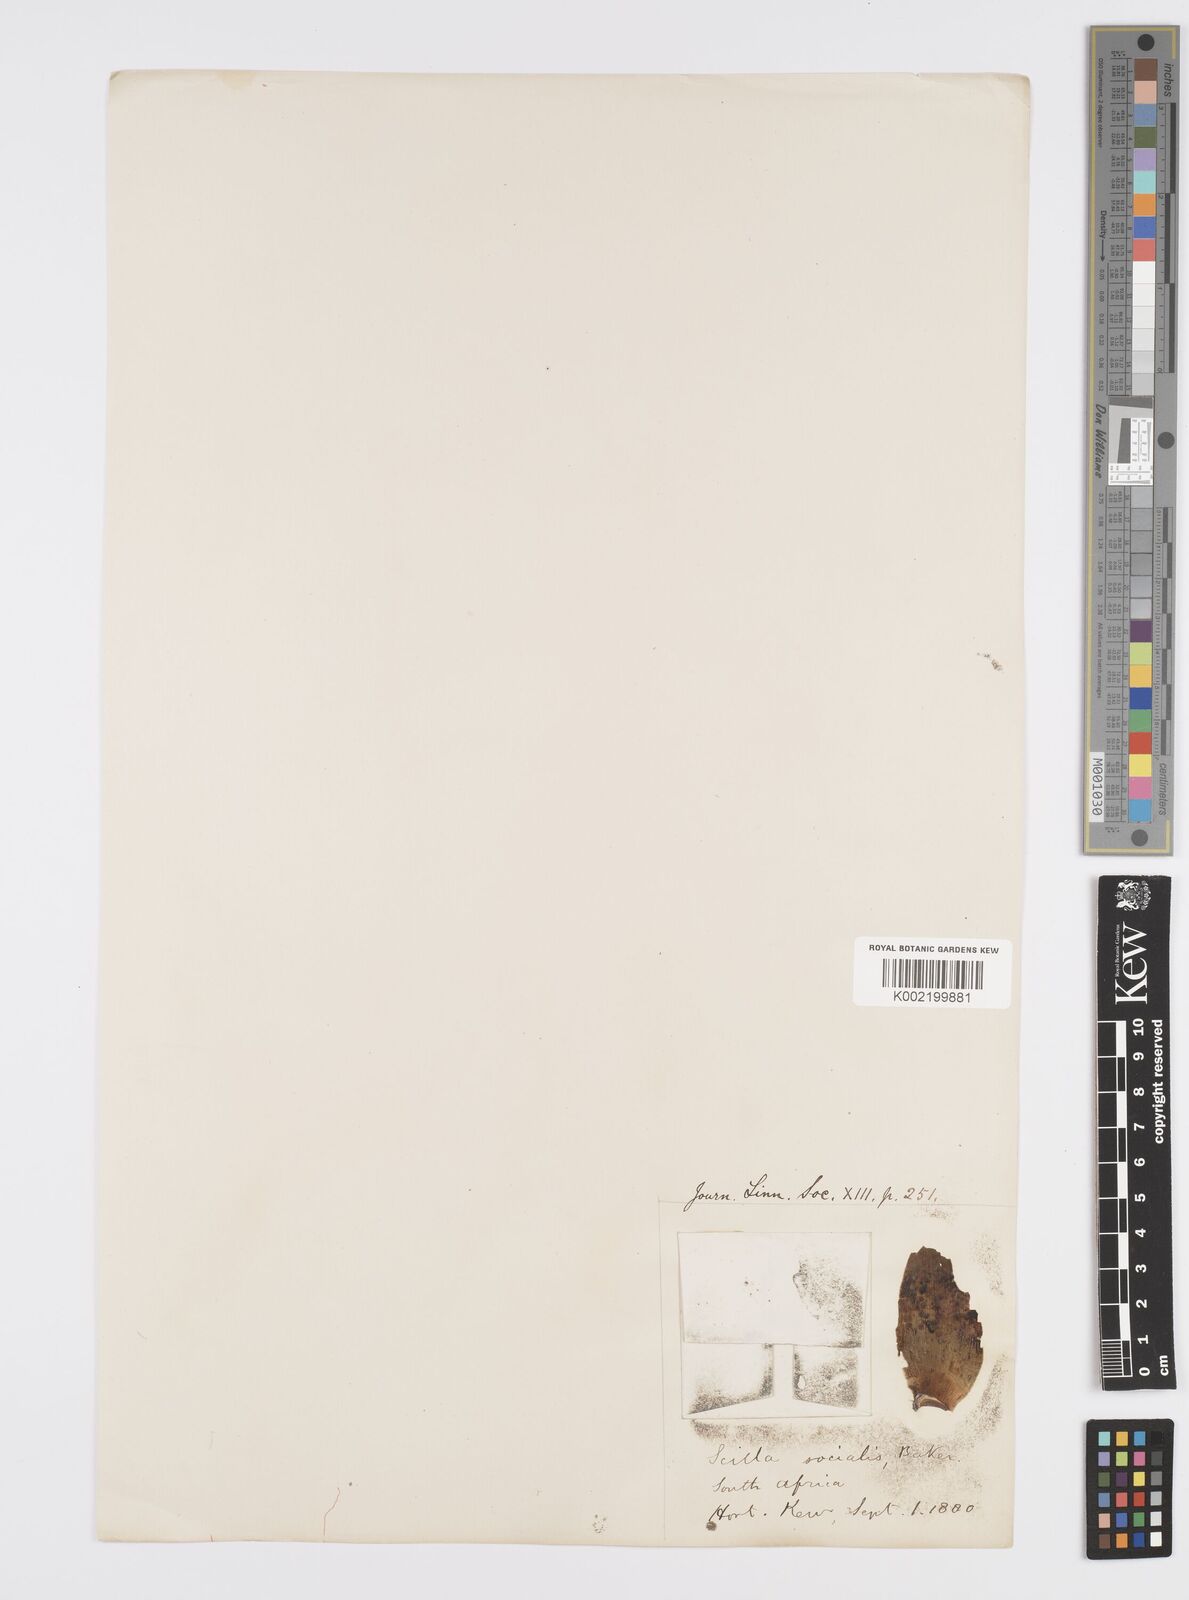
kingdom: Plantae
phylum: Tracheophyta
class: Liliopsida
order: Asparagales
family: Asparagaceae
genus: Ledebouria
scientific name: Ledebouria socialis
